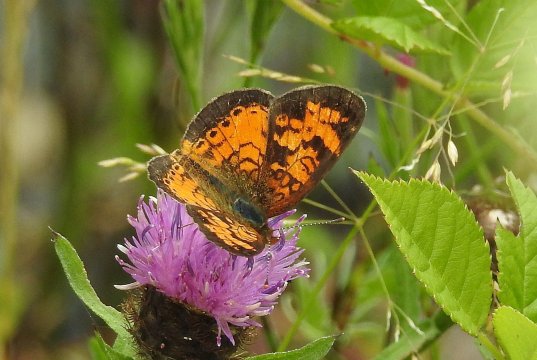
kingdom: Animalia
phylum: Arthropoda
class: Insecta
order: Lepidoptera
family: Nymphalidae
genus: Phyciodes
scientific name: Phyciodes tharos
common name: Northern Crescent
